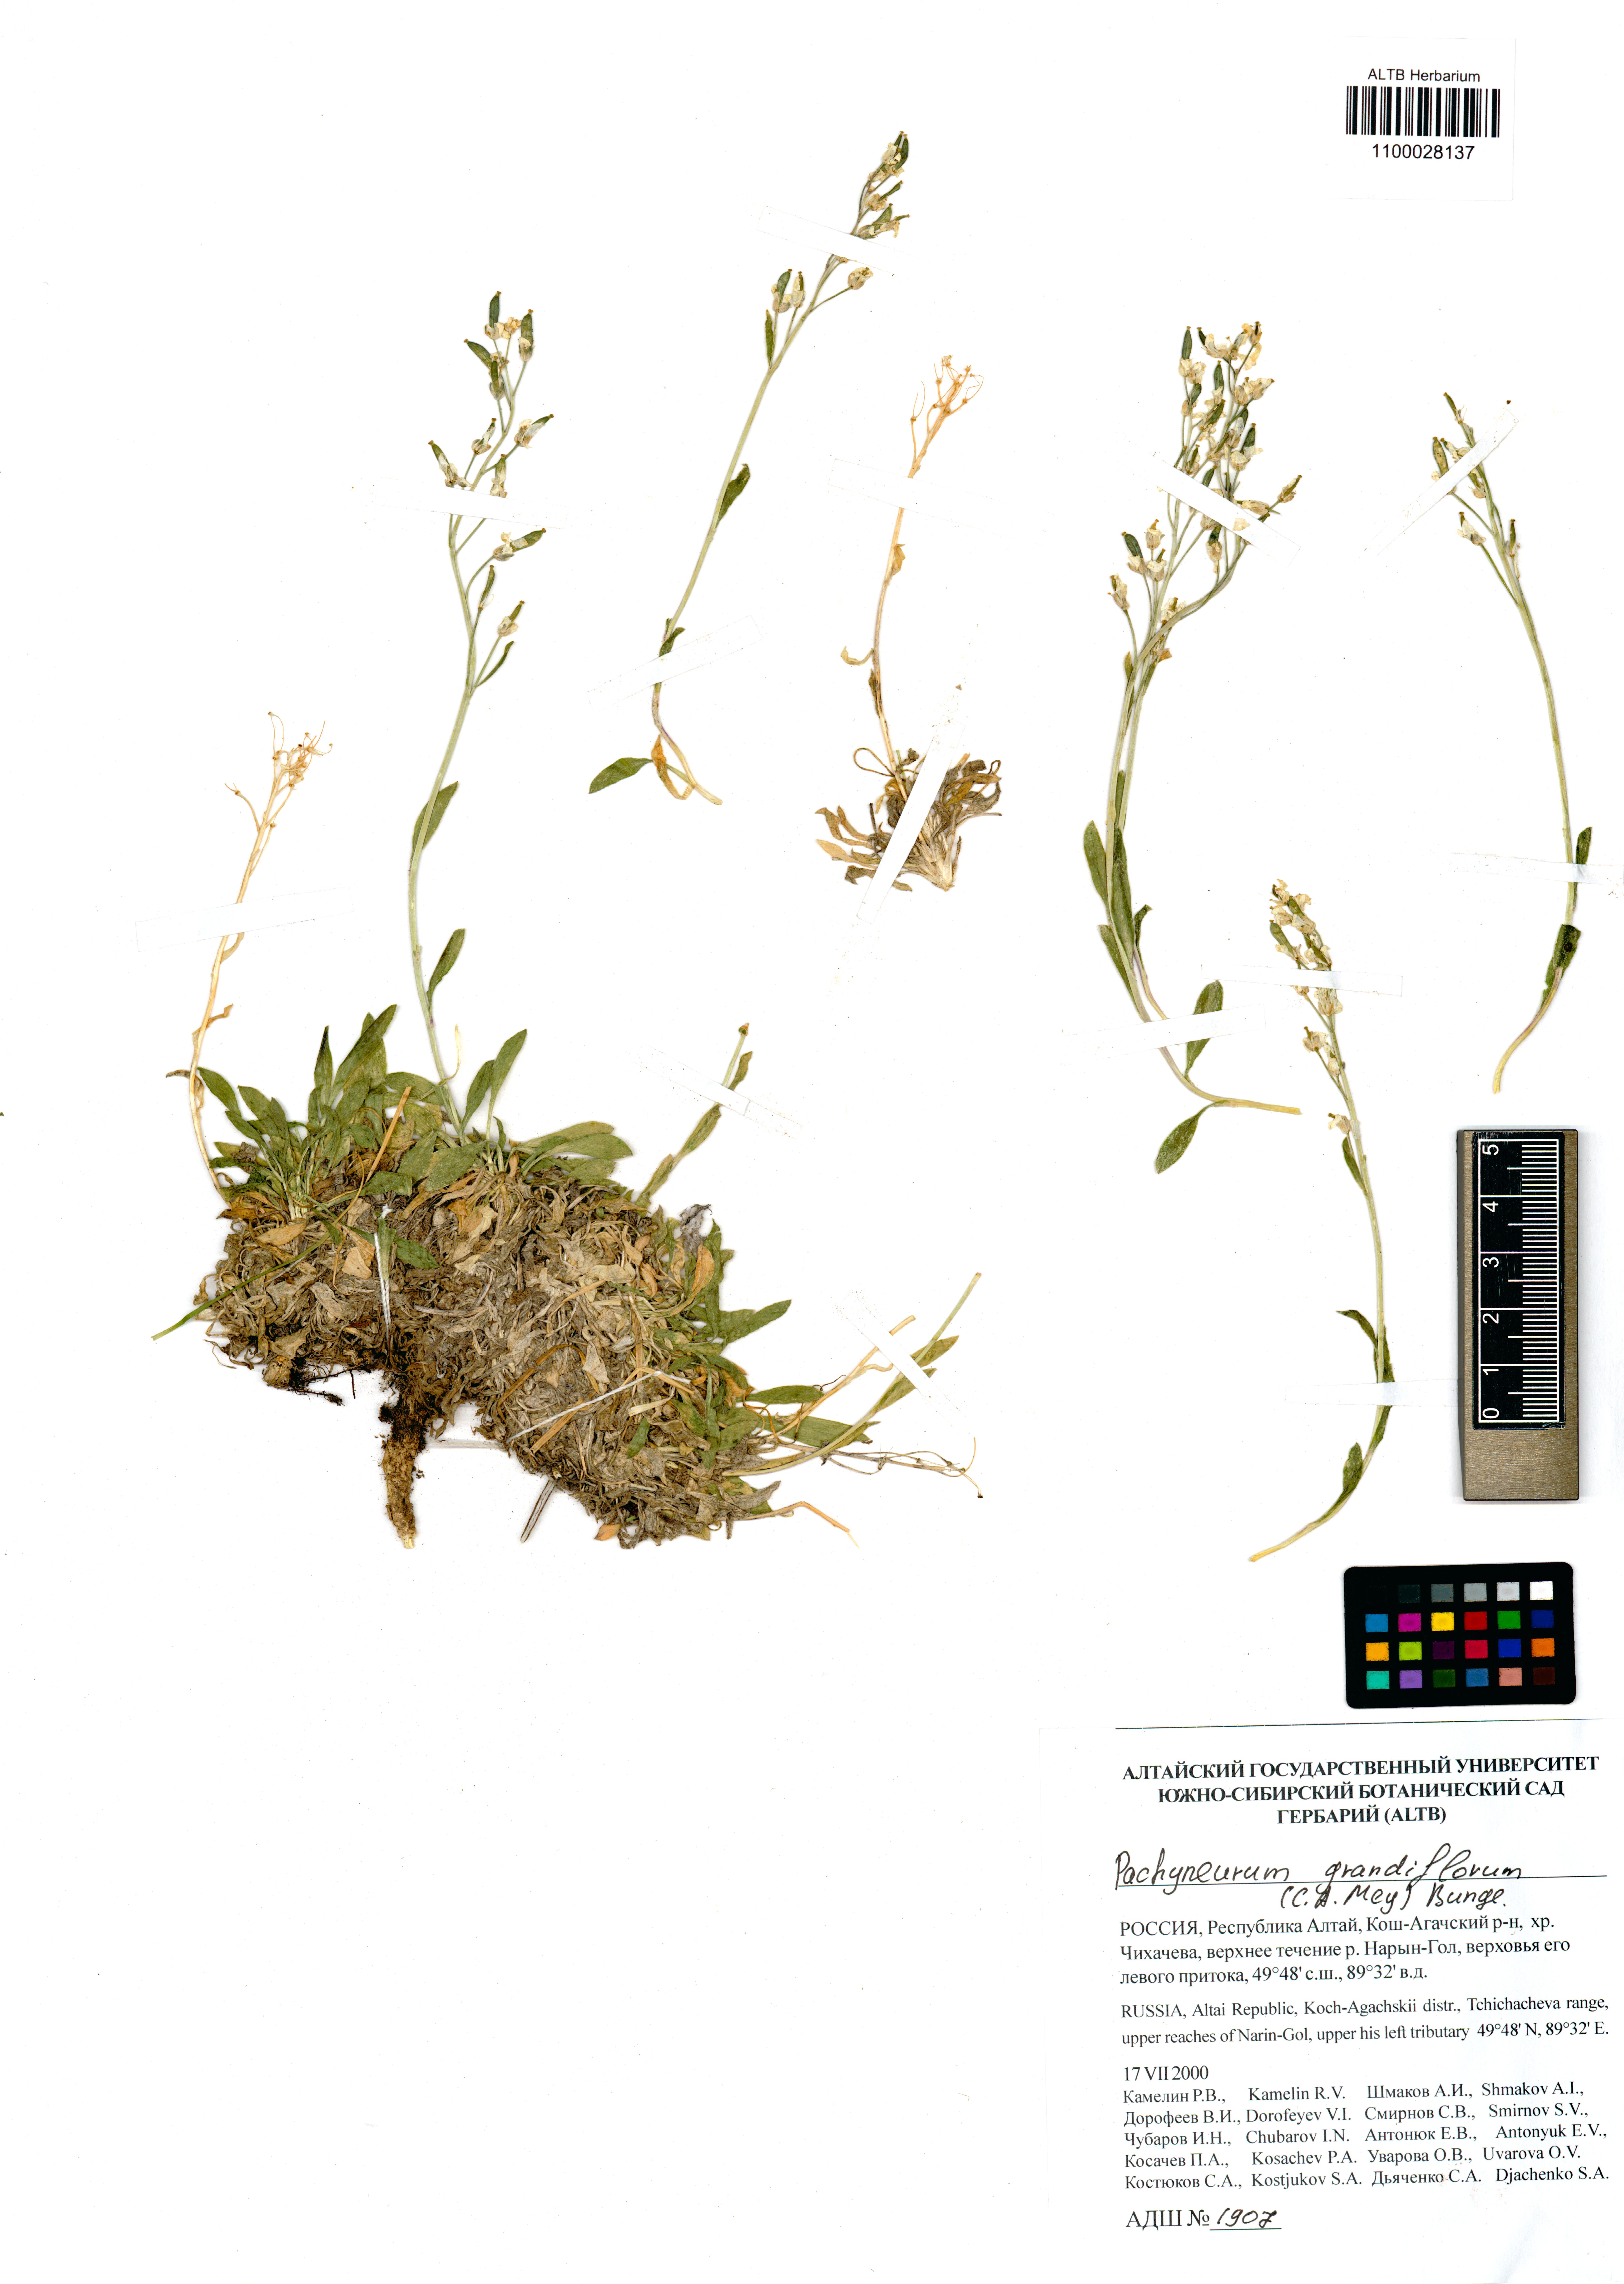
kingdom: Plantae
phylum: Tracheophyta
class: Magnoliopsida
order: Brassicales
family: Brassicaceae
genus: Pachyneurum
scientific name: Pachyneurum grandiflorum
